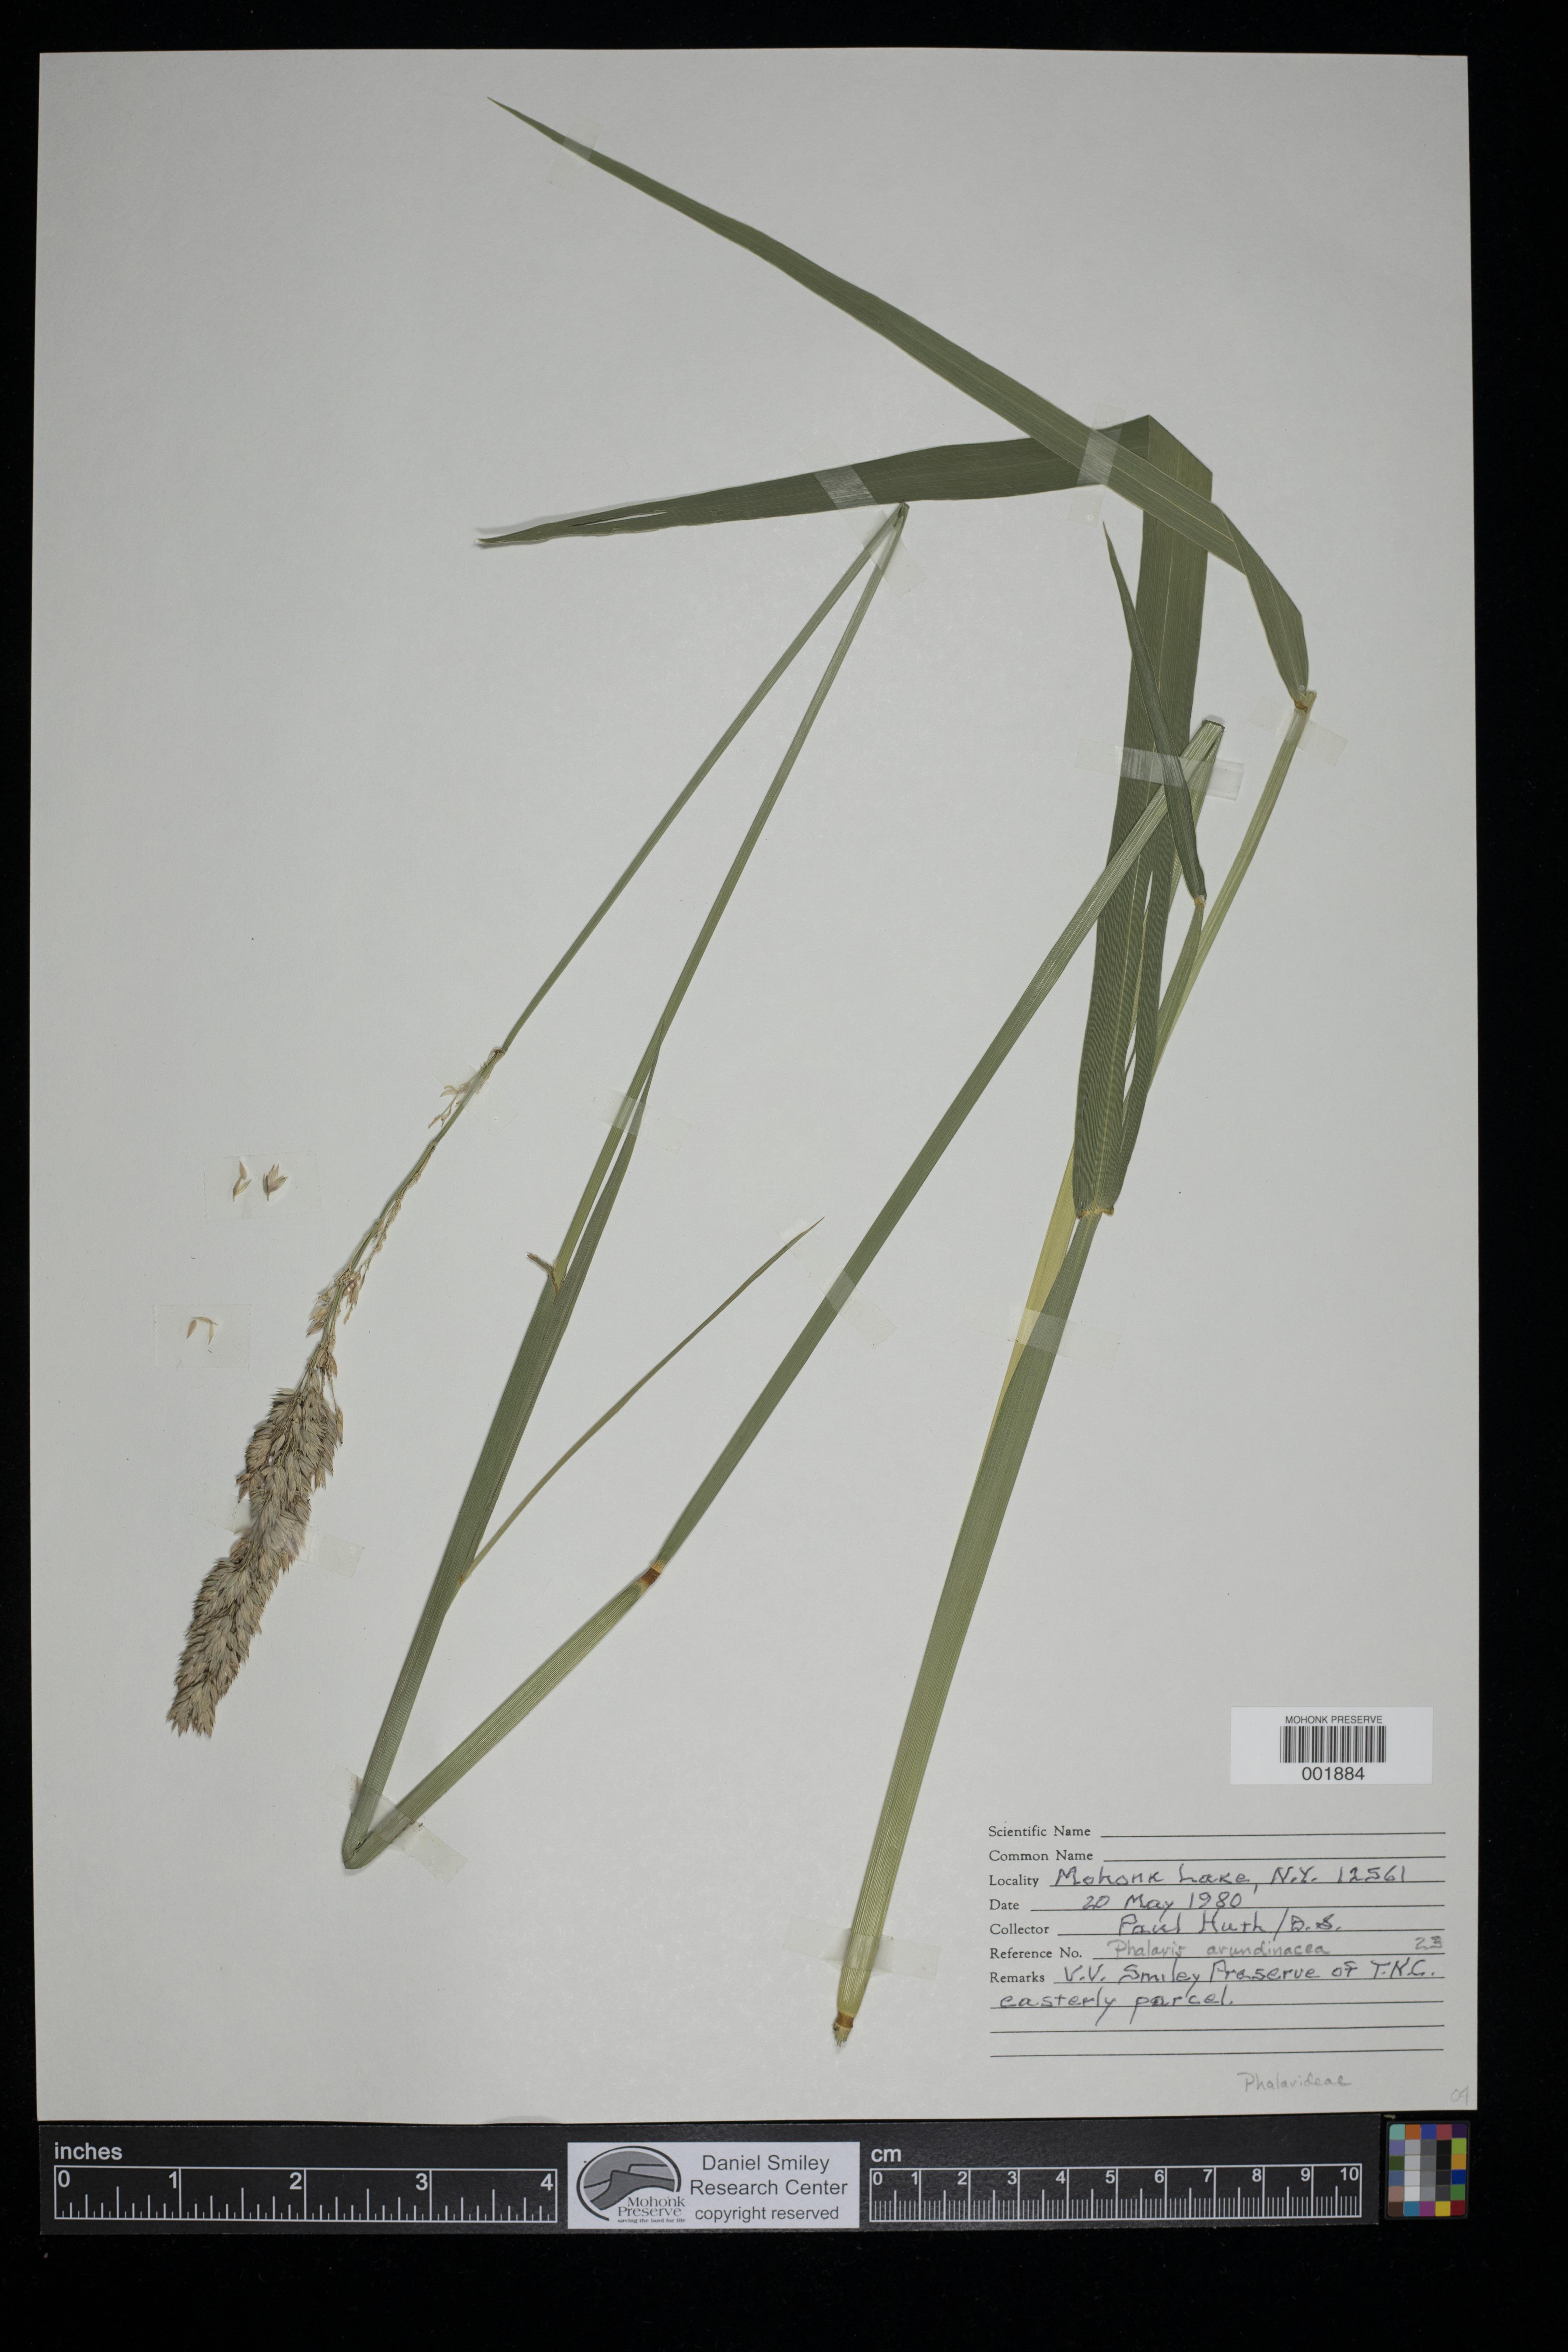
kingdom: Plantae
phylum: Tracheophyta
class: Liliopsida
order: Poales
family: Poaceae
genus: Phalaris
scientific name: Phalaris arundinacea
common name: Reed canary-grass
